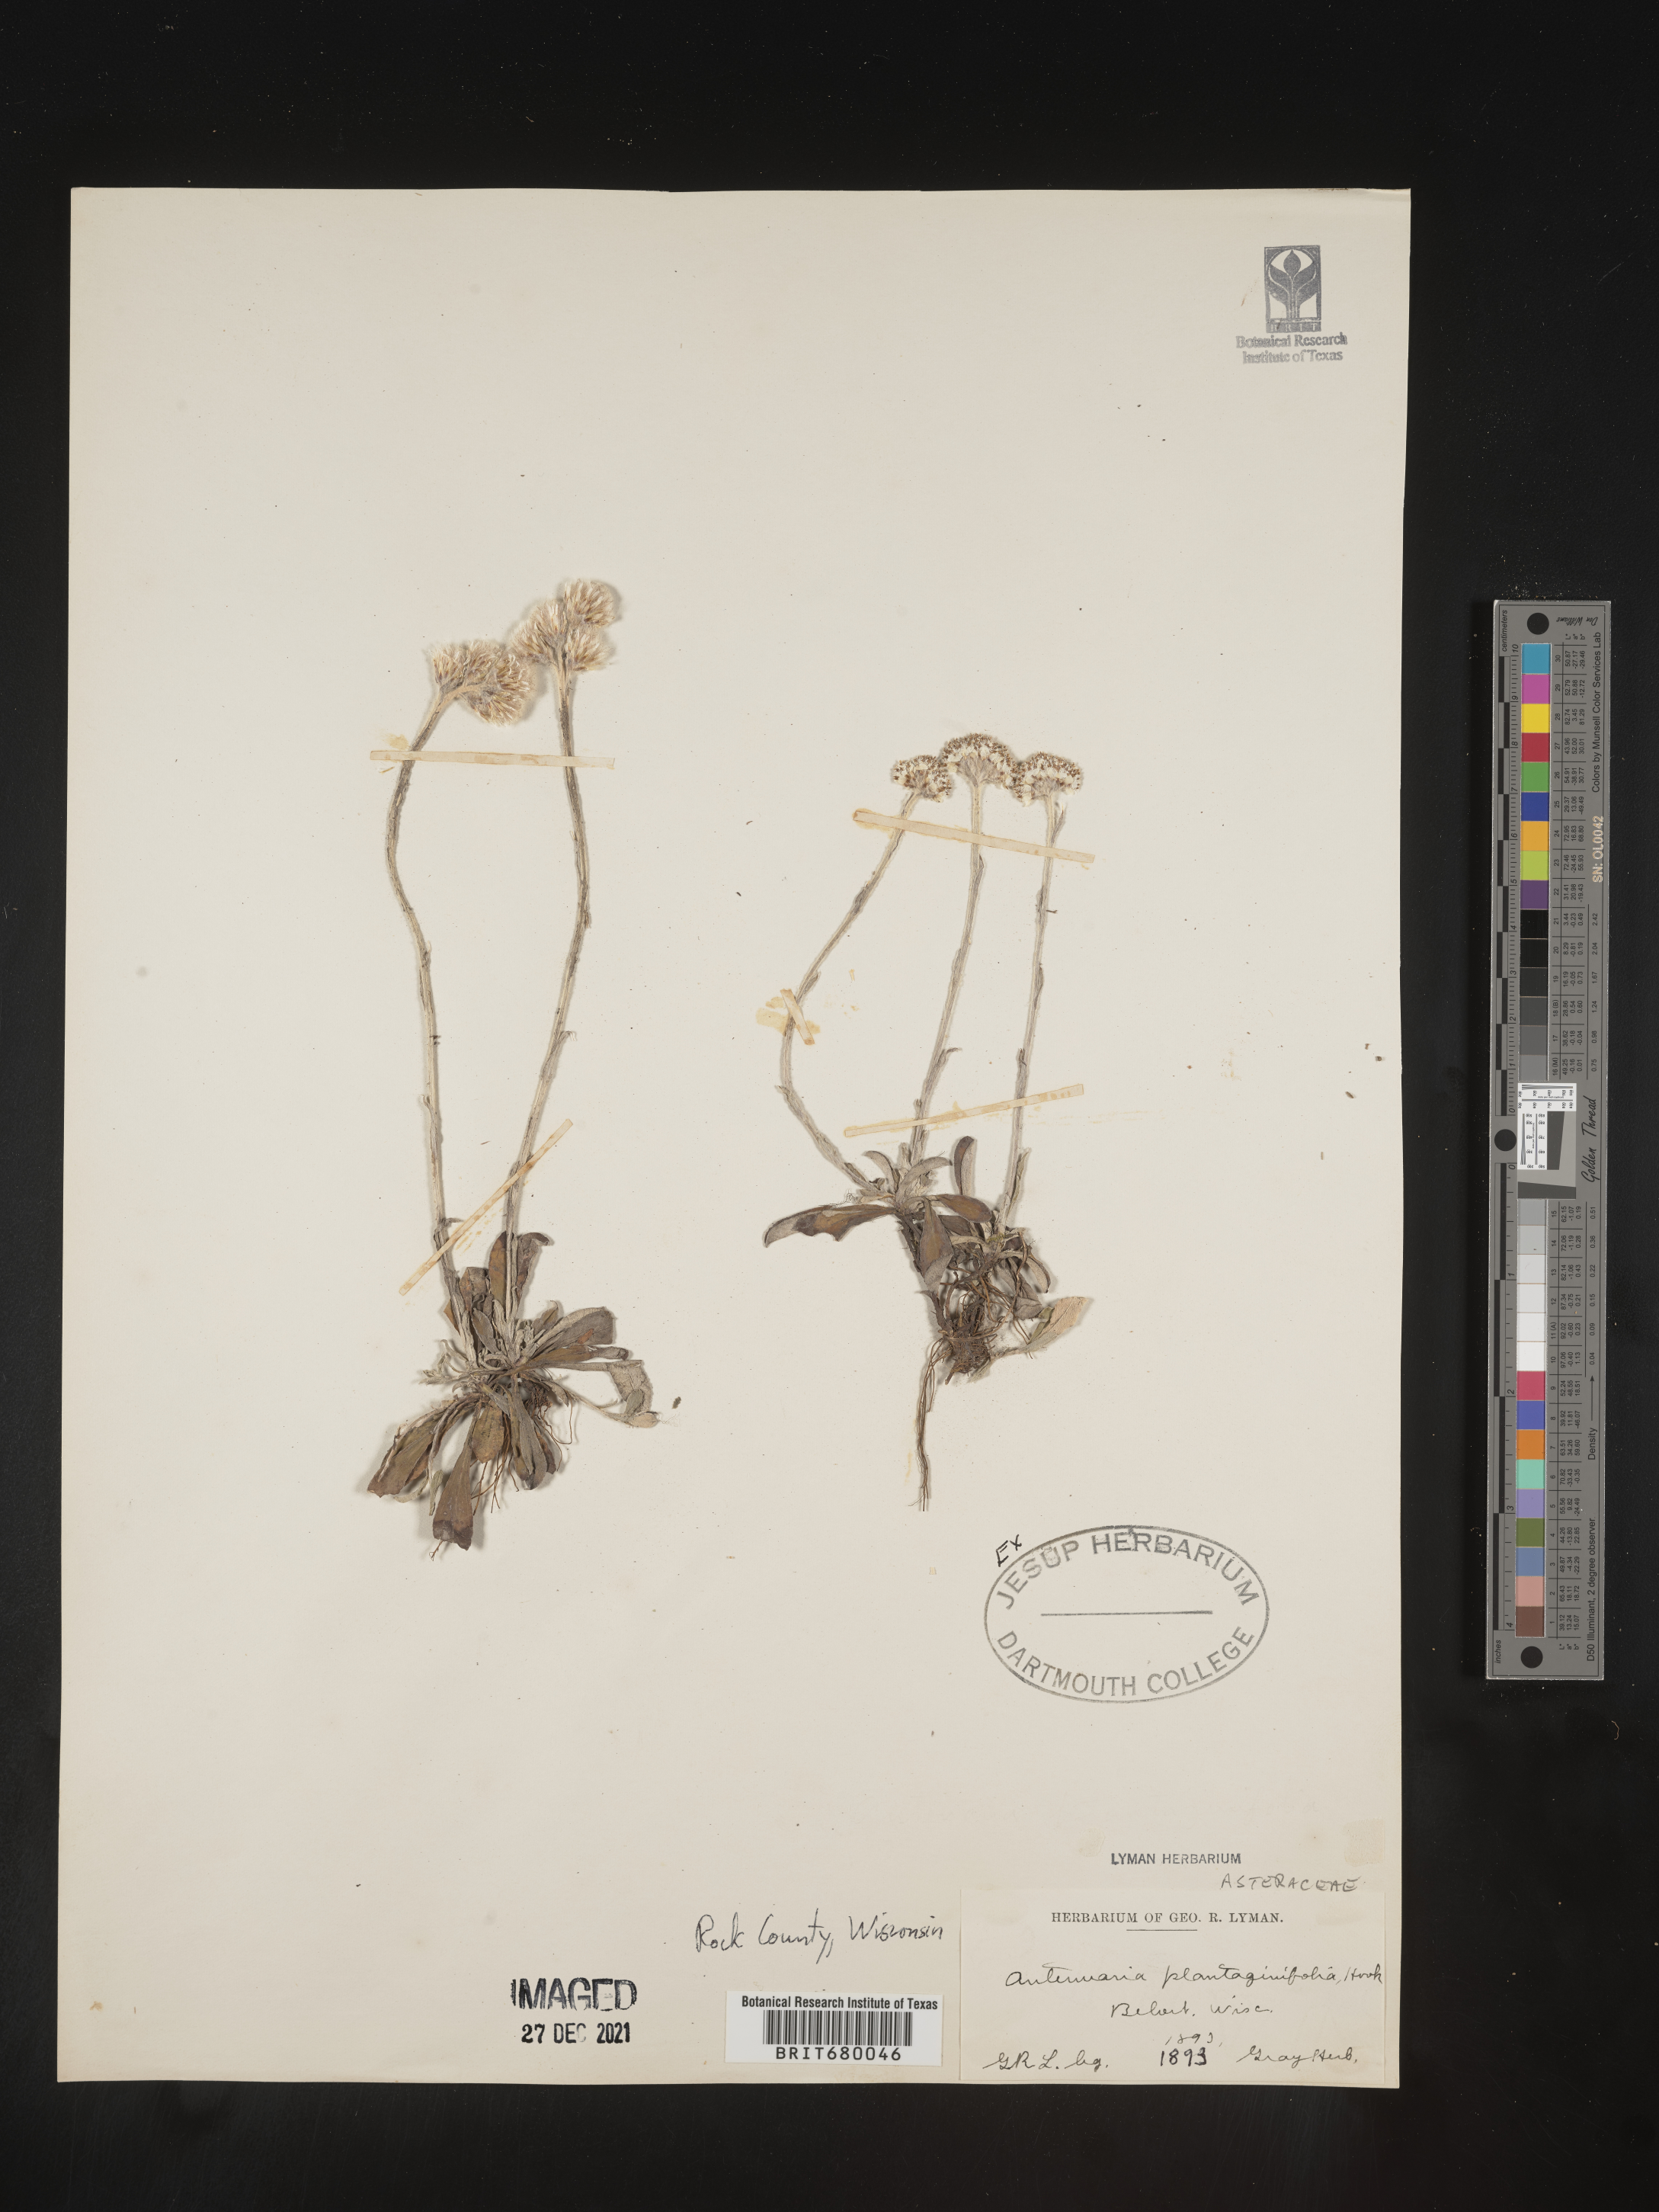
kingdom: Plantae
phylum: Tracheophyta
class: Magnoliopsida
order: Asterales
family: Asteraceae
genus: Antennaria
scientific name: Antennaria plantaginifolia
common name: Plantain-leaved pussytoes
